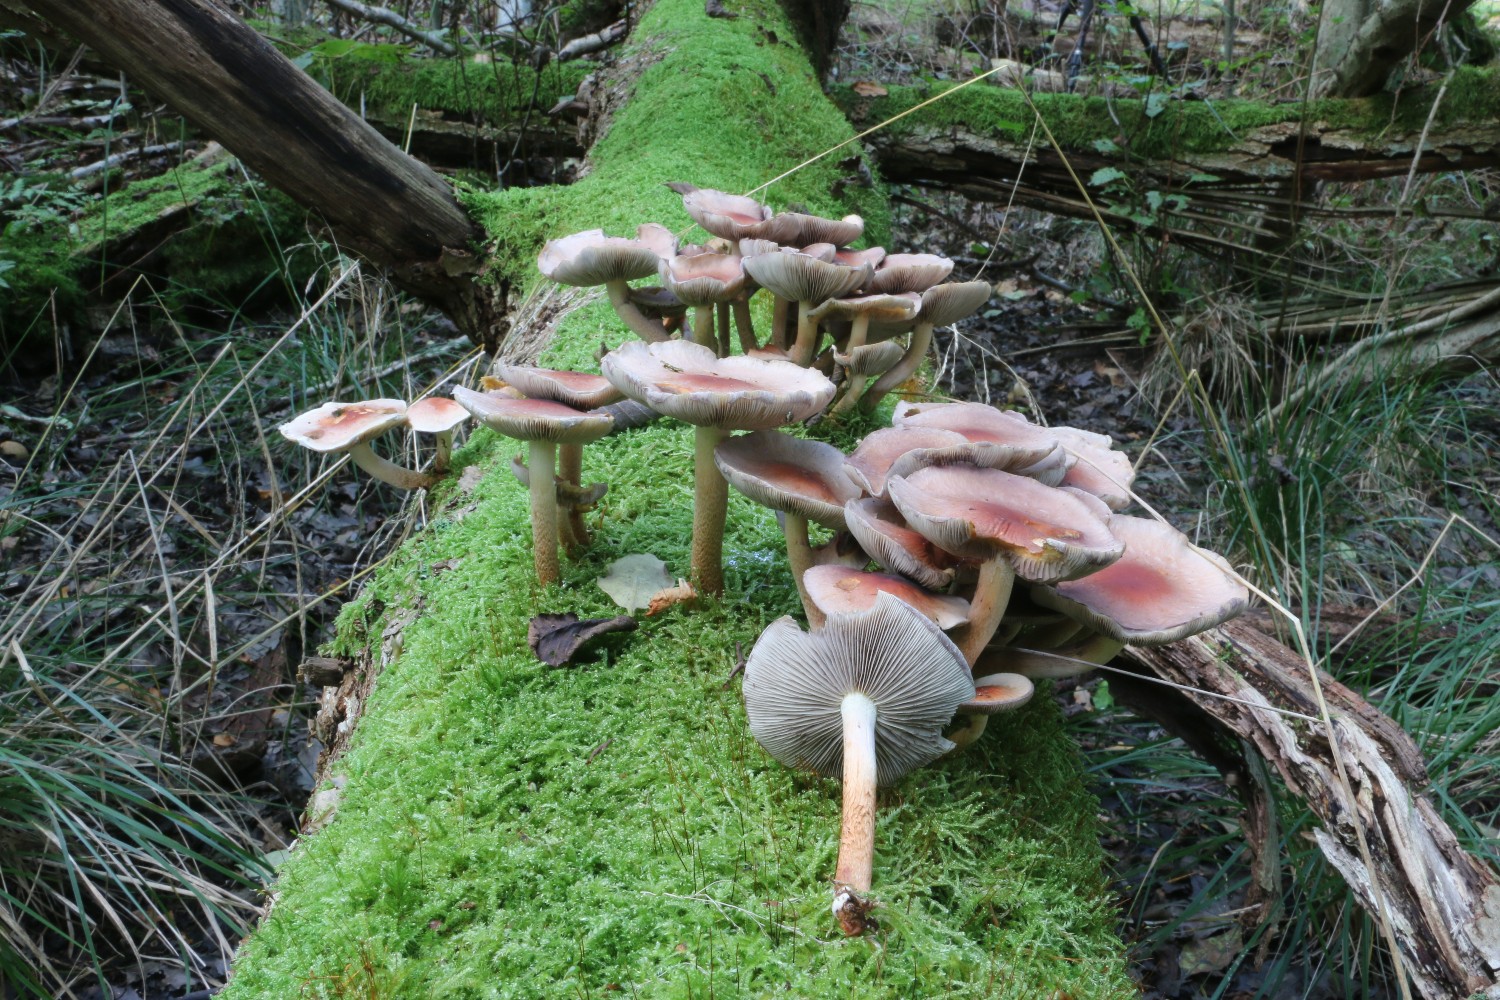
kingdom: Fungi
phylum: Basidiomycota
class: Agaricomycetes
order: Agaricales
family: Strophariaceae
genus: Hypholoma
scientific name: Hypholoma lateritium
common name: teglrød svovlhat
